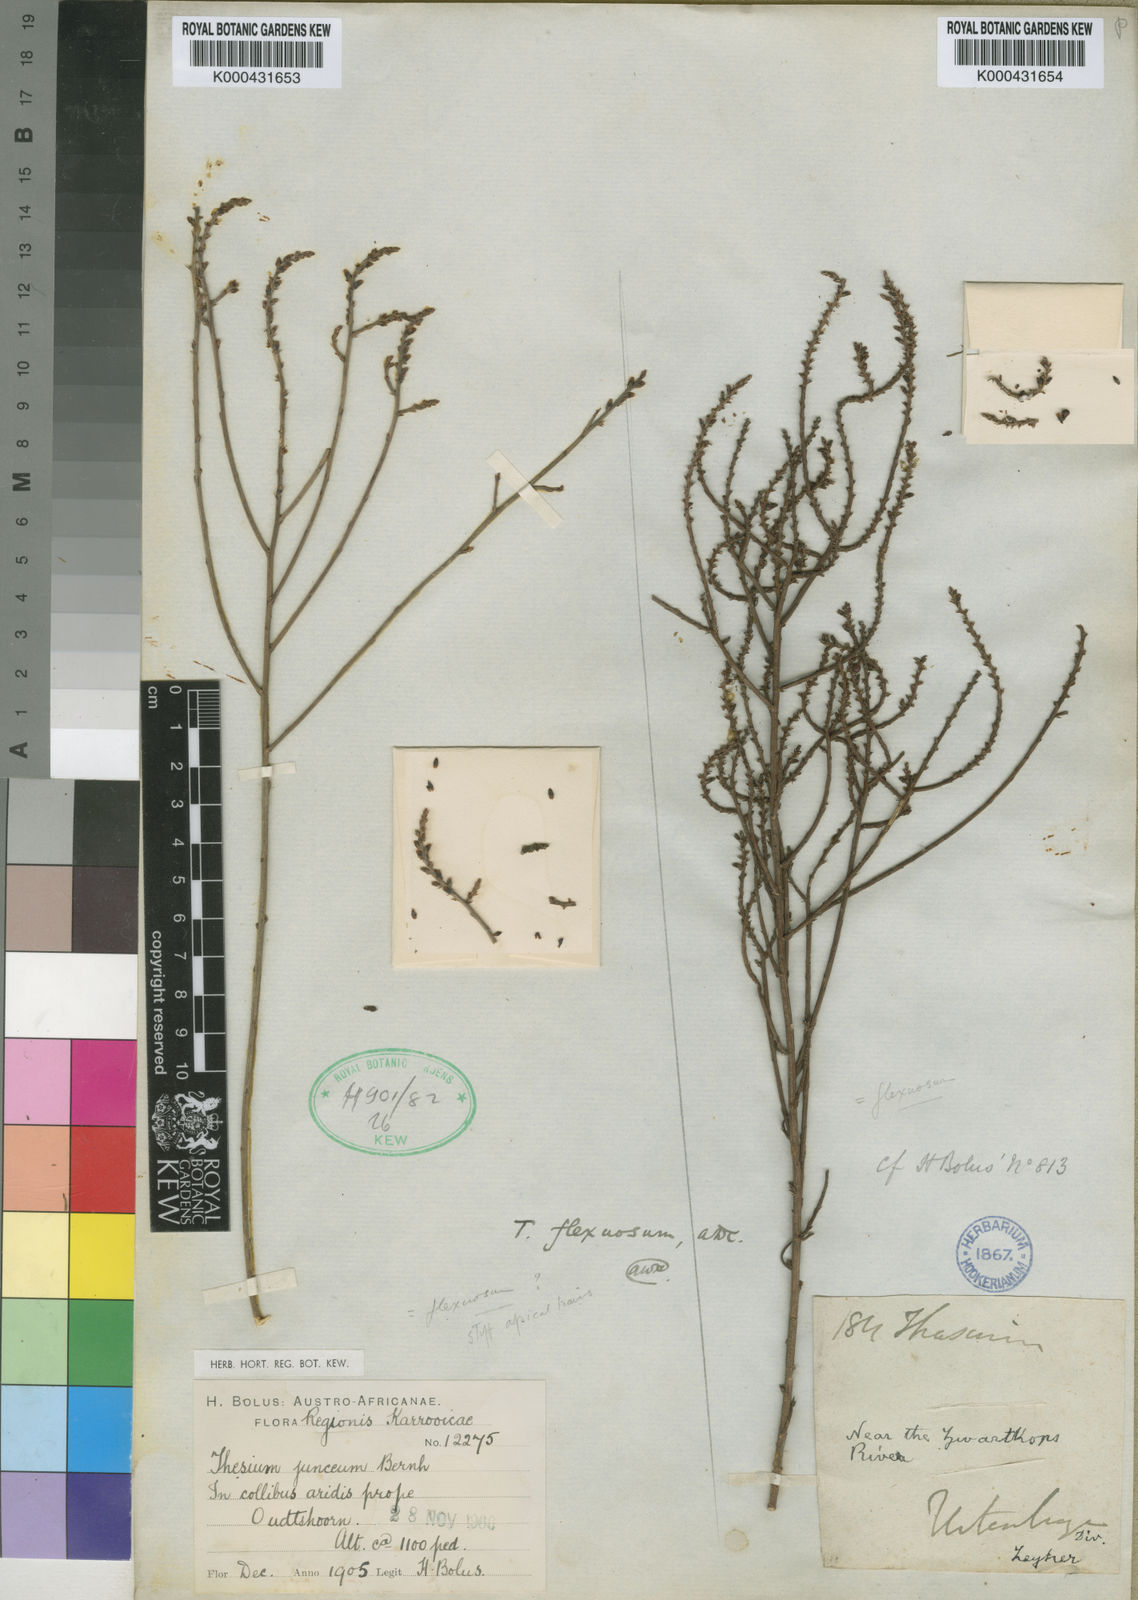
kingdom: Plantae
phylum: Tracheophyta
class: Magnoliopsida
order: Santalales
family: Thesiaceae
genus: Thesium
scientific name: Thesium flexuosum
